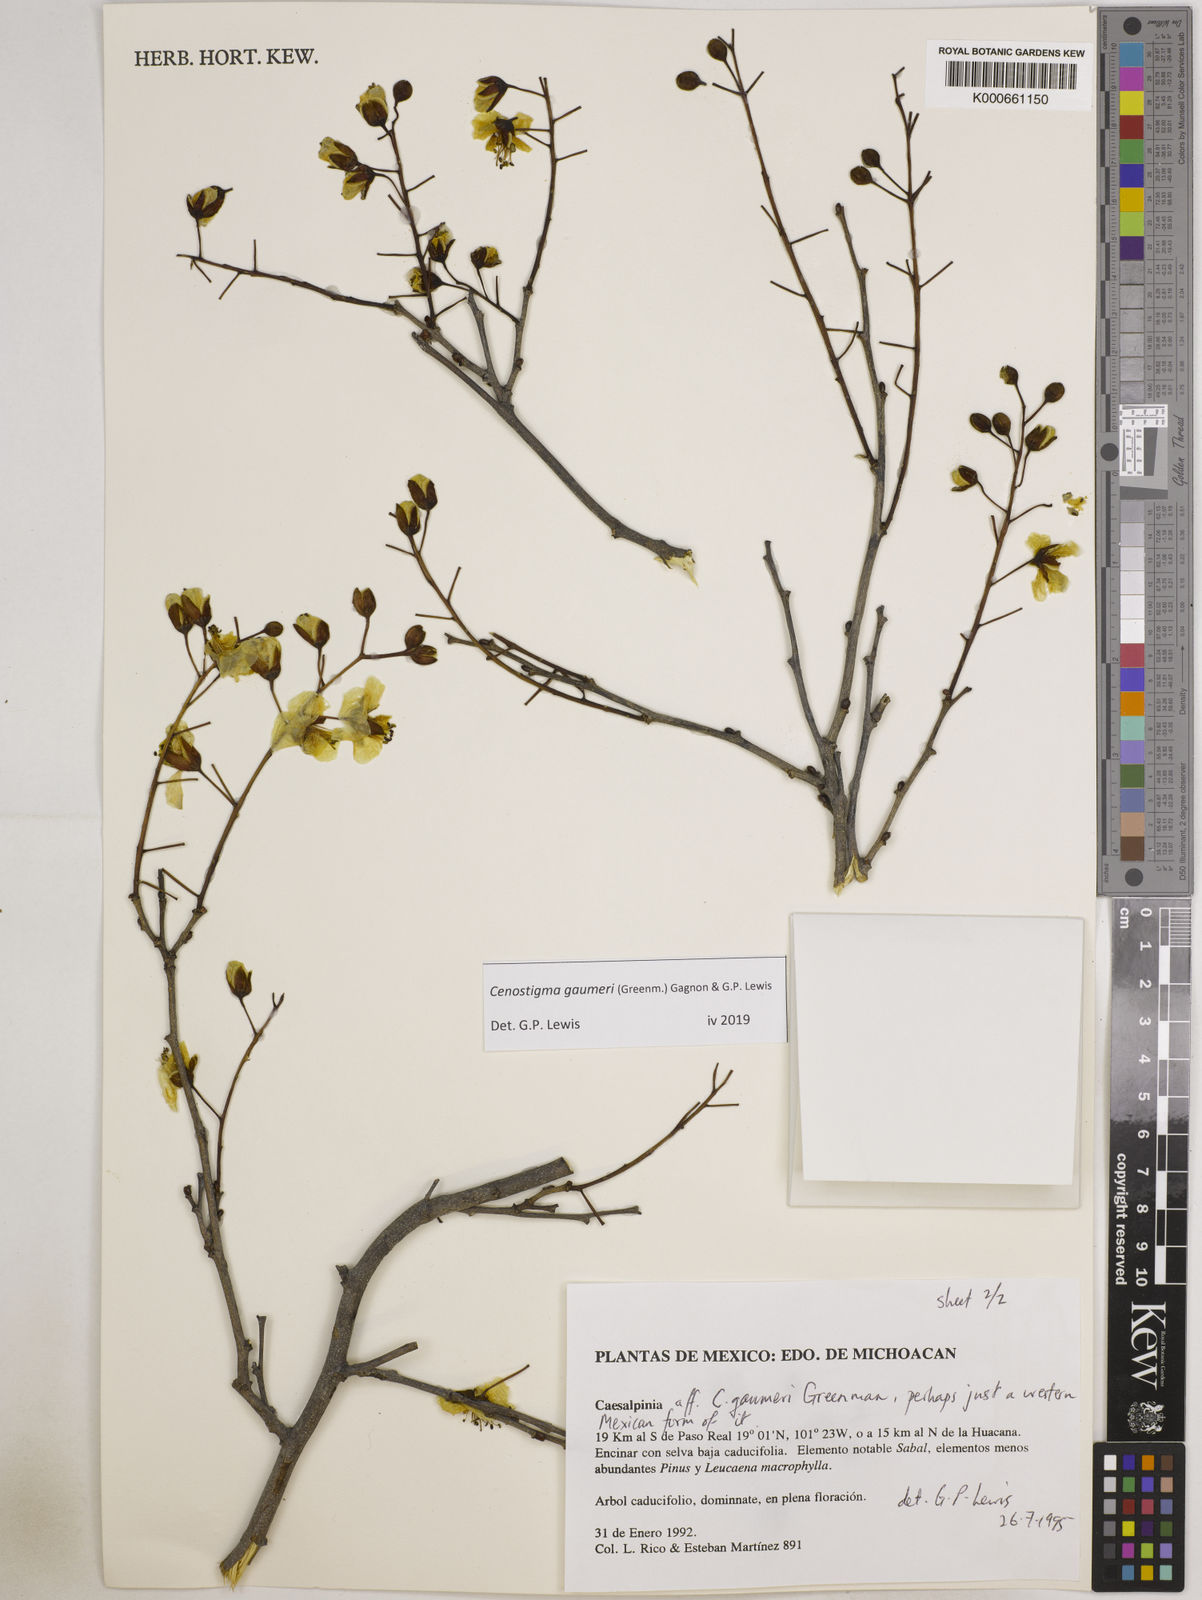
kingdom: Plantae
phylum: Tracheophyta
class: Magnoliopsida
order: Fabales
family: Fabaceae
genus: Cenostigma
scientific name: Cenostigma gaumeri
